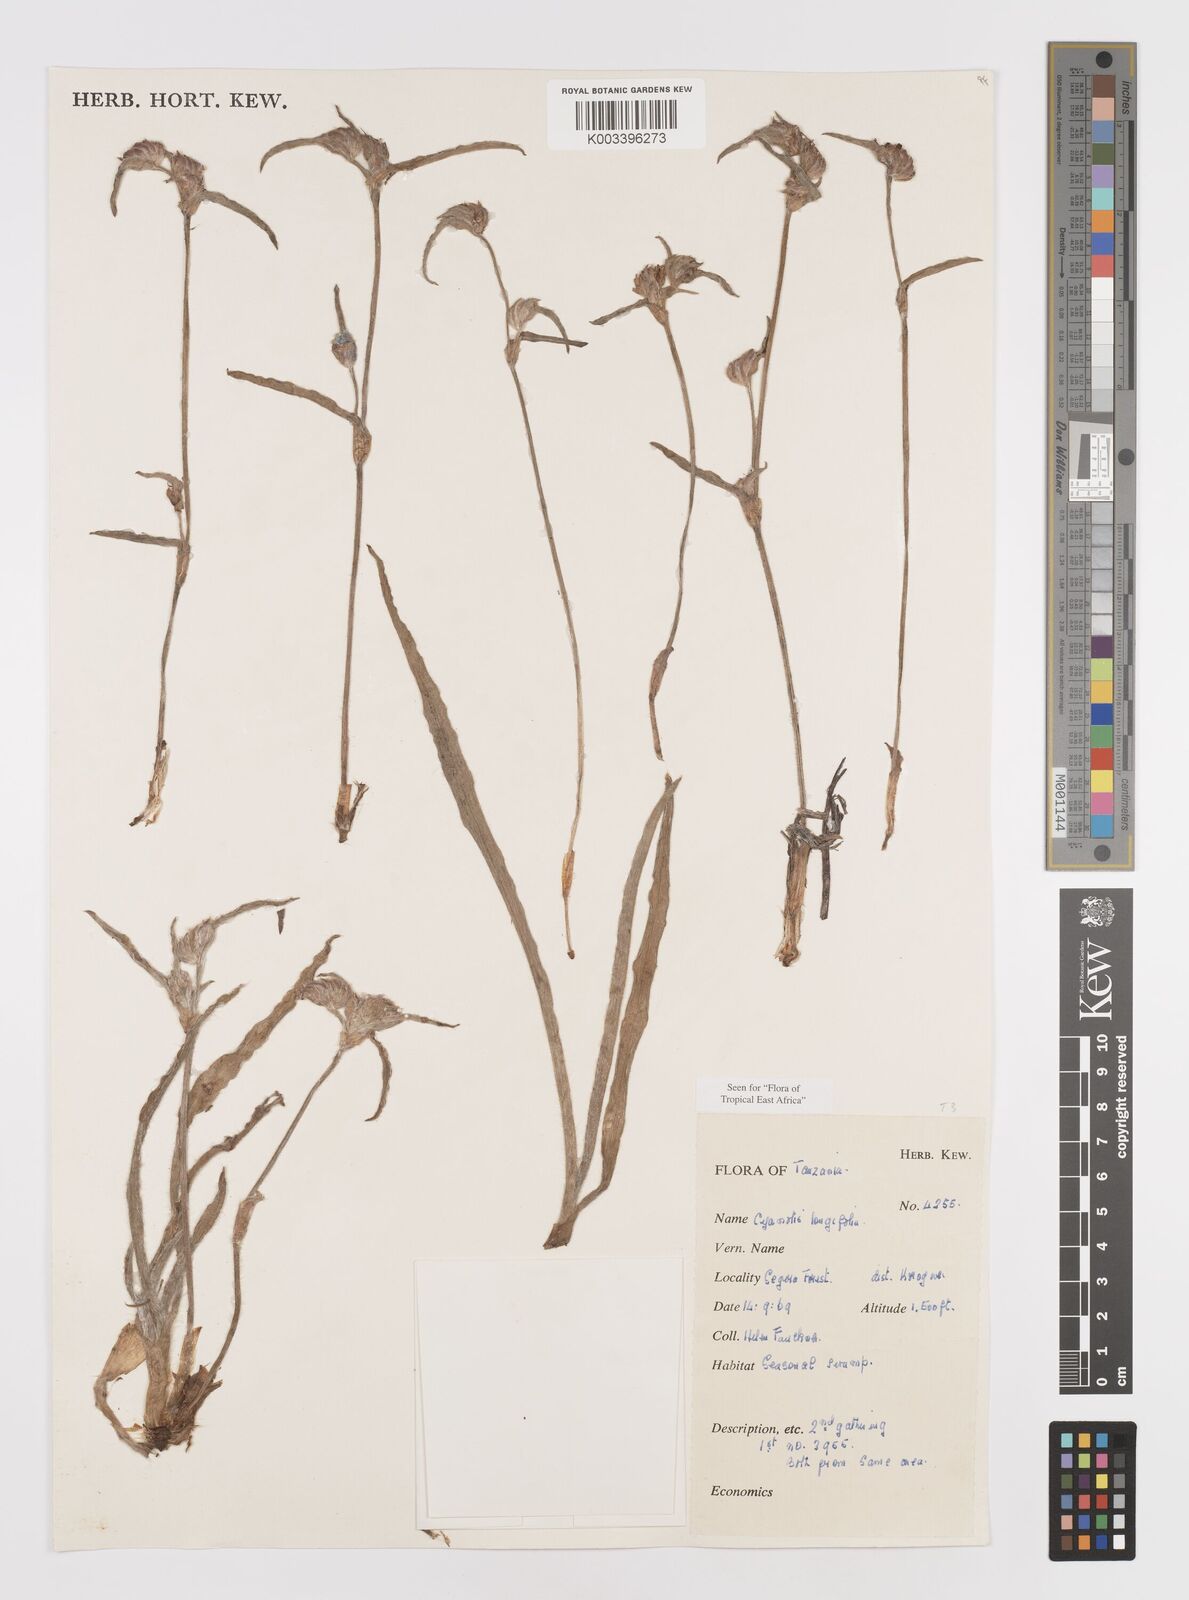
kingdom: Plantae
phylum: Tracheophyta
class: Liliopsida
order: Commelinales
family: Commelinaceae
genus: Cyanotis
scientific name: Cyanotis longifolia
